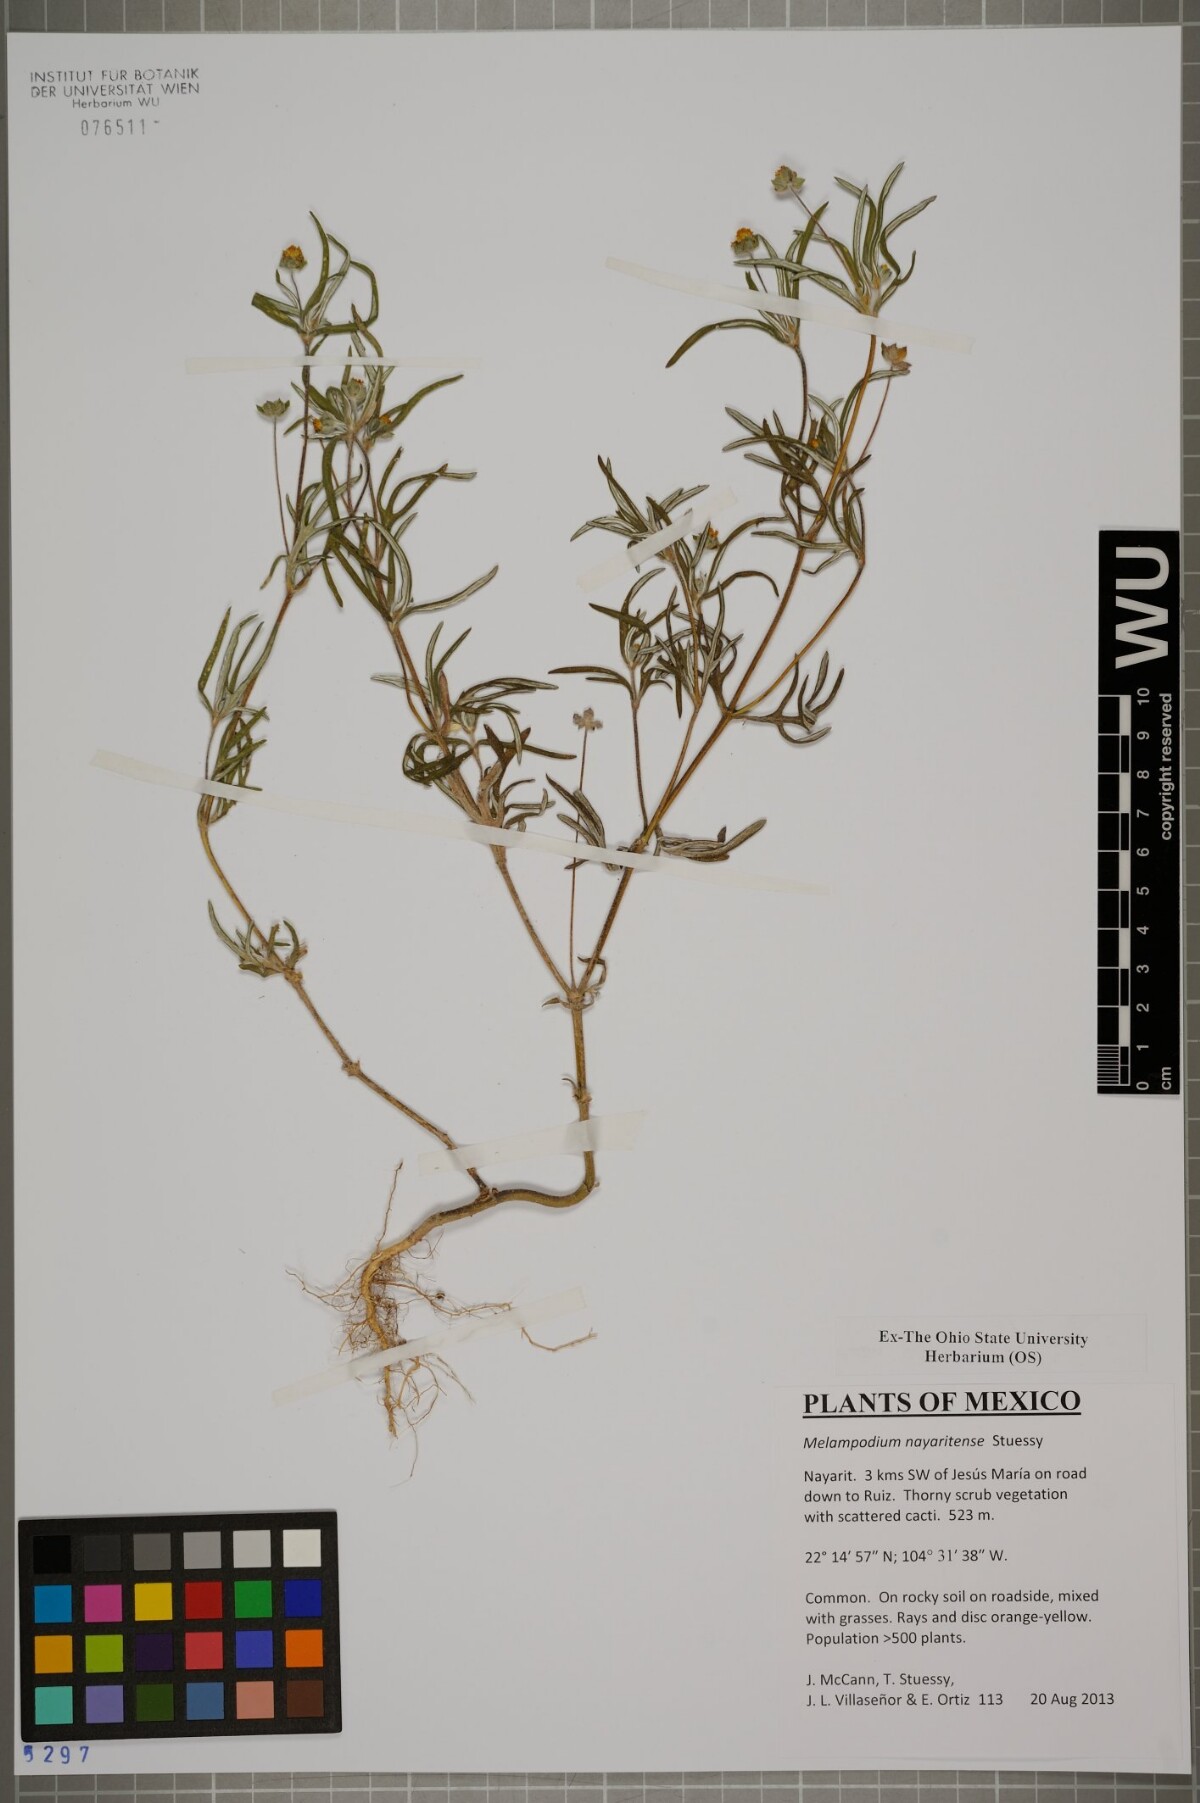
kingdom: Plantae
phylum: Tracheophyta
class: Magnoliopsida
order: Asterales
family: Asteraceae
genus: Melampodium
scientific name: Melampodium nayaritense
